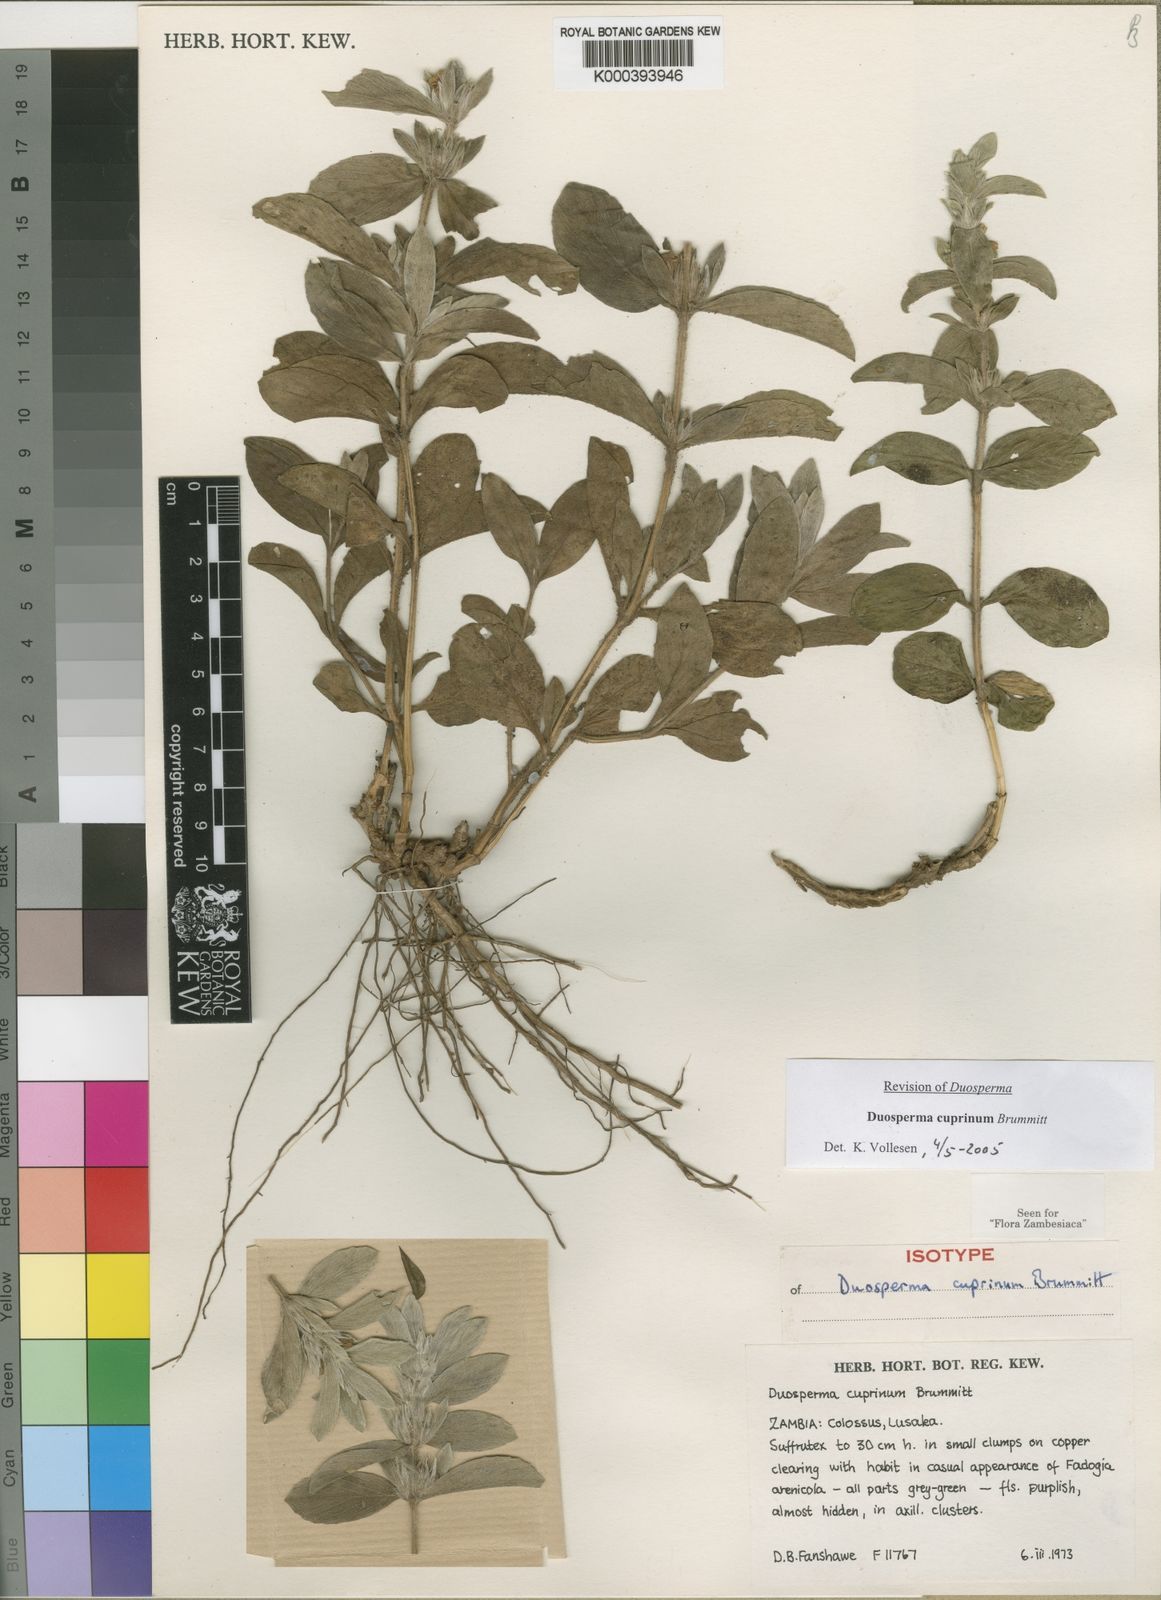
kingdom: Plantae
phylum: Tracheophyta
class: Magnoliopsida
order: Lamiales
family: Acanthaceae
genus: Duosperma
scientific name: Duosperma cuprinum
